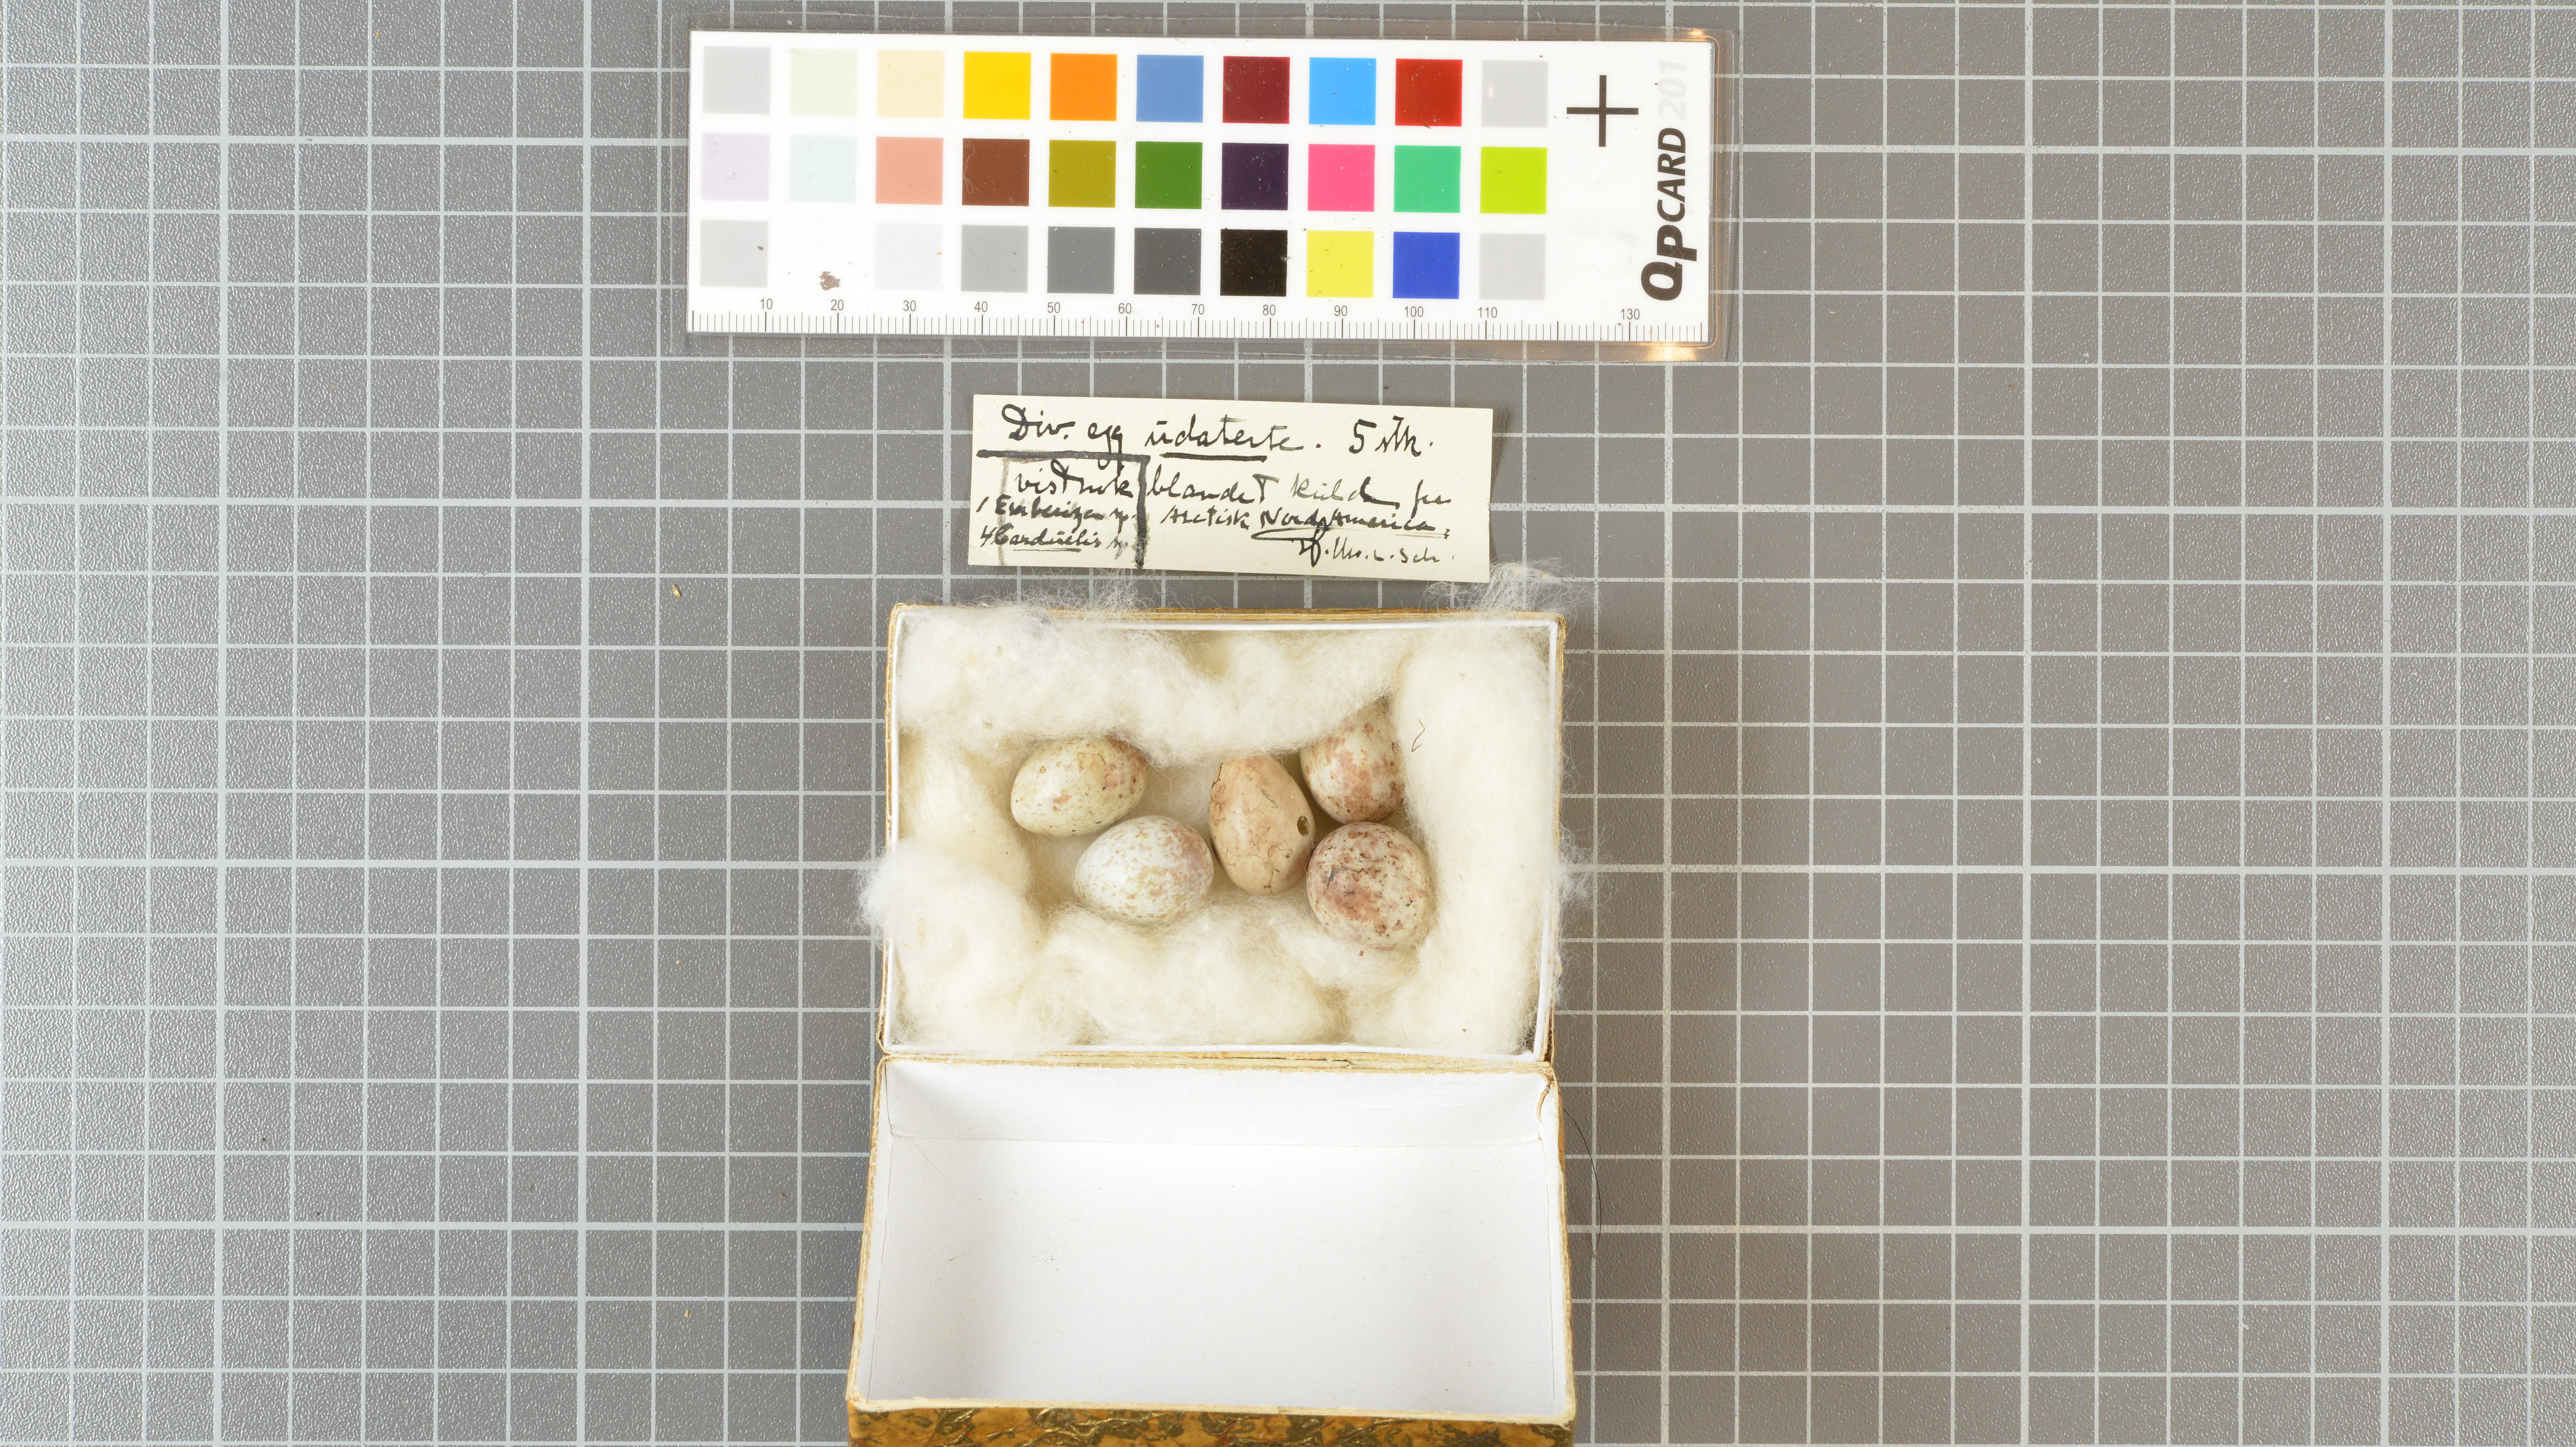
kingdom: Animalia
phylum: Chordata
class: Aves
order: Passeriformes
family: Emberizidae
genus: Emberiza
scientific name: Emberiza
